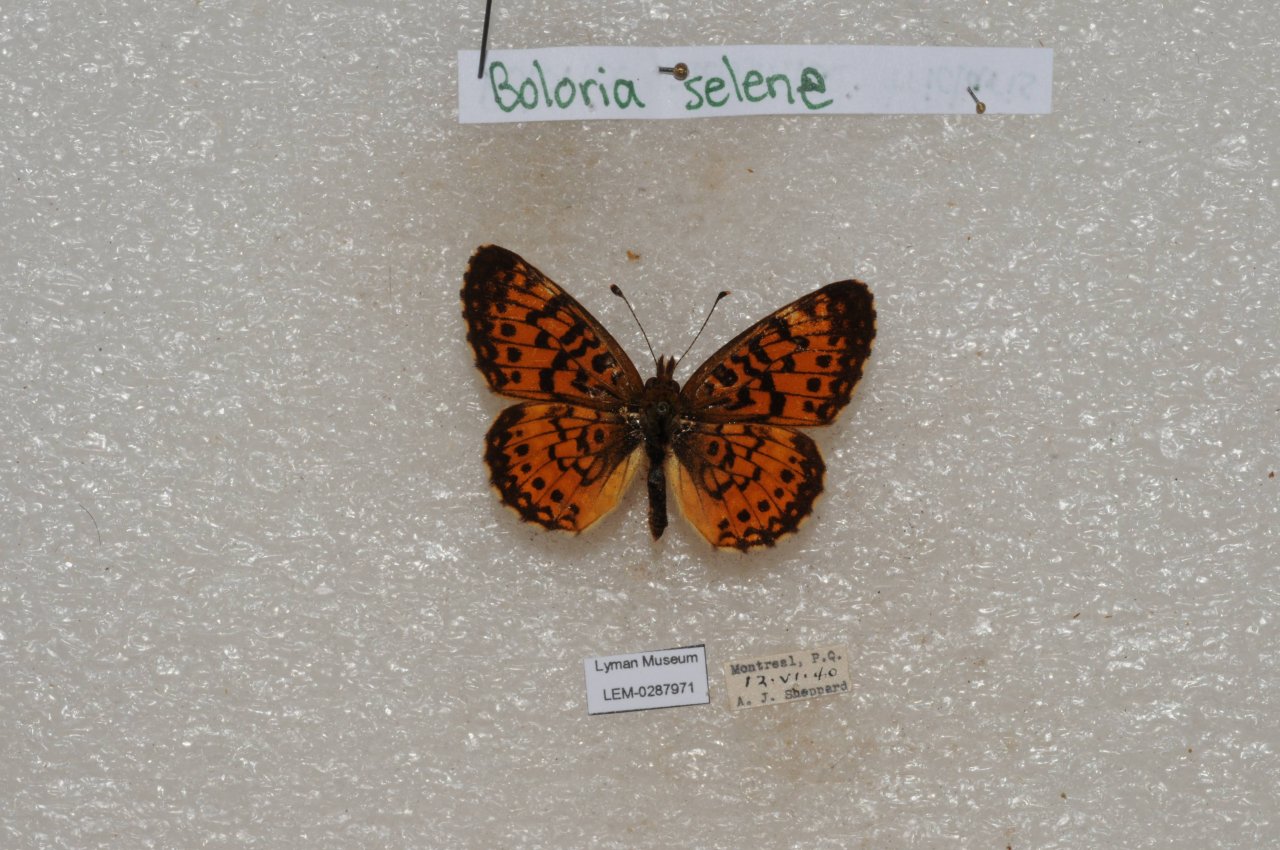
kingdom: Animalia
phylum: Arthropoda
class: Insecta
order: Lepidoptera
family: Nymphalidae
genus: Boloria
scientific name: Boloria selene
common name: Silver-bordered Fritillary
